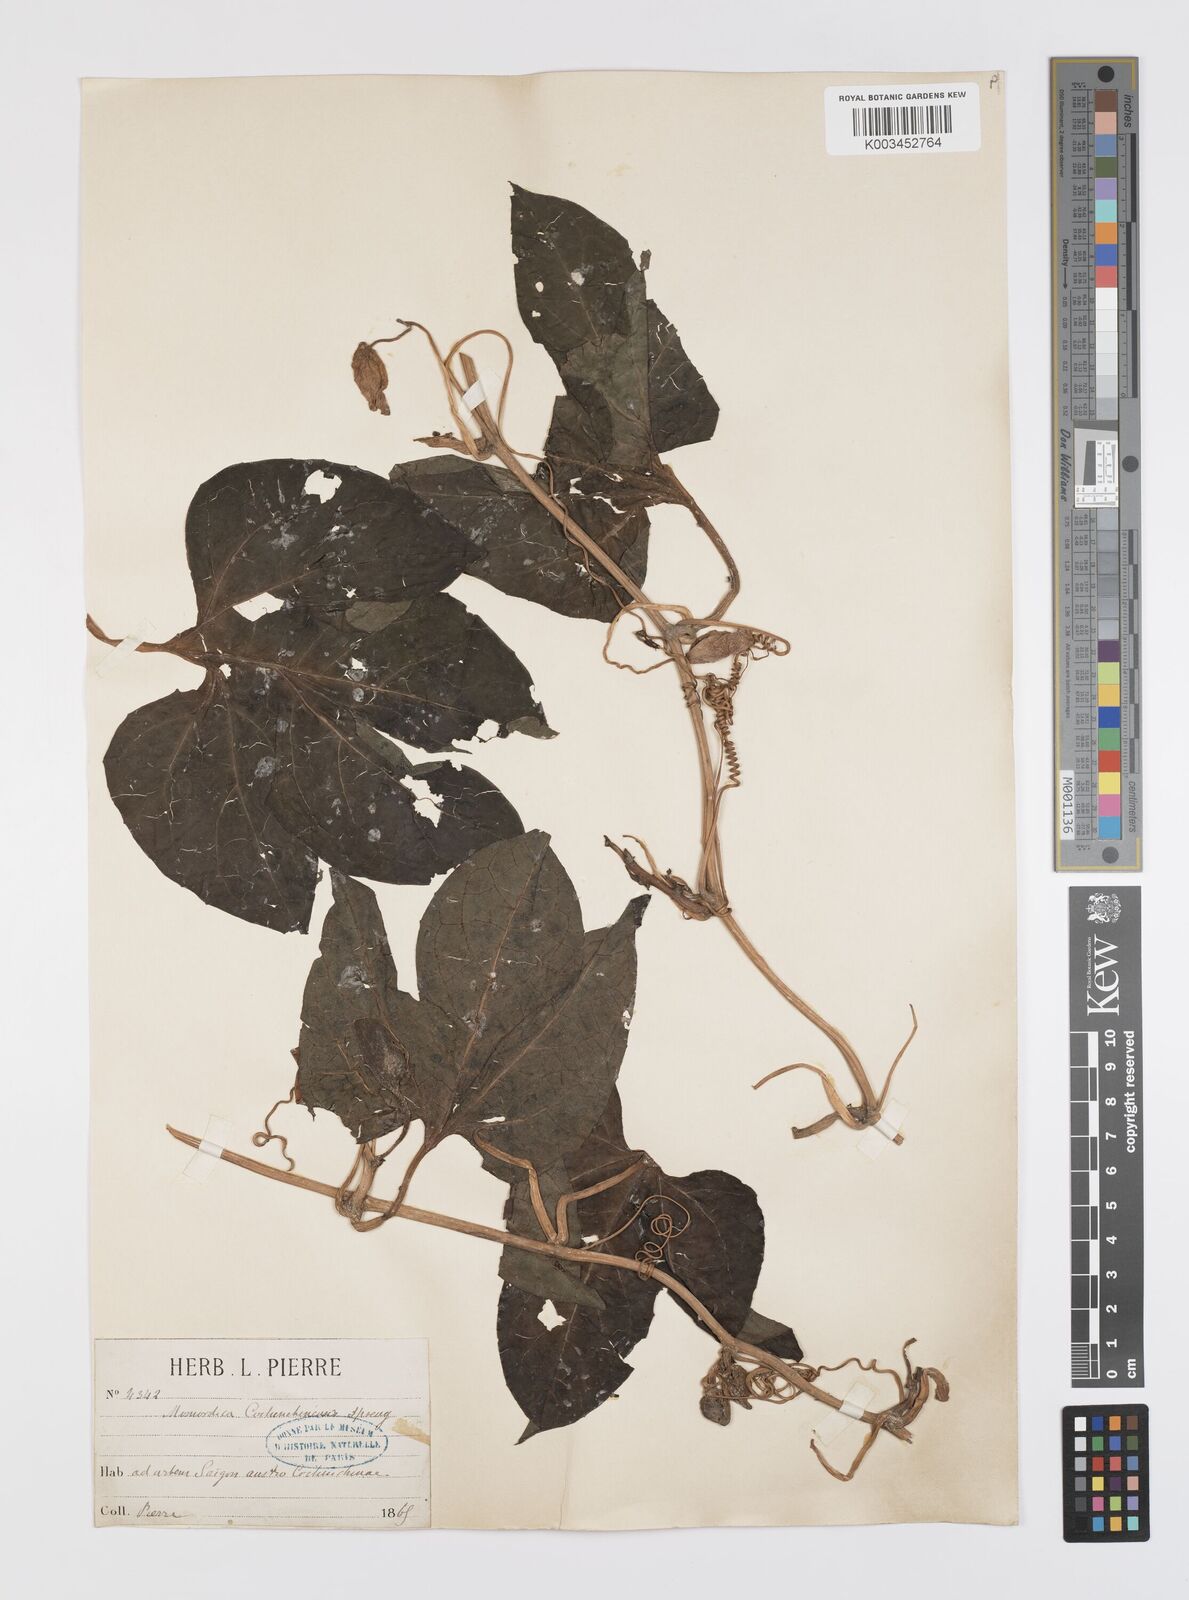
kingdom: Plantae
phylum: Tracheophyta
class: Magnoliopsida
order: Cucurbitales
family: Cucurbitaceae
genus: Momordica
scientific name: Momordica cochinchinensis
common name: Chinese bitter-cucumber
